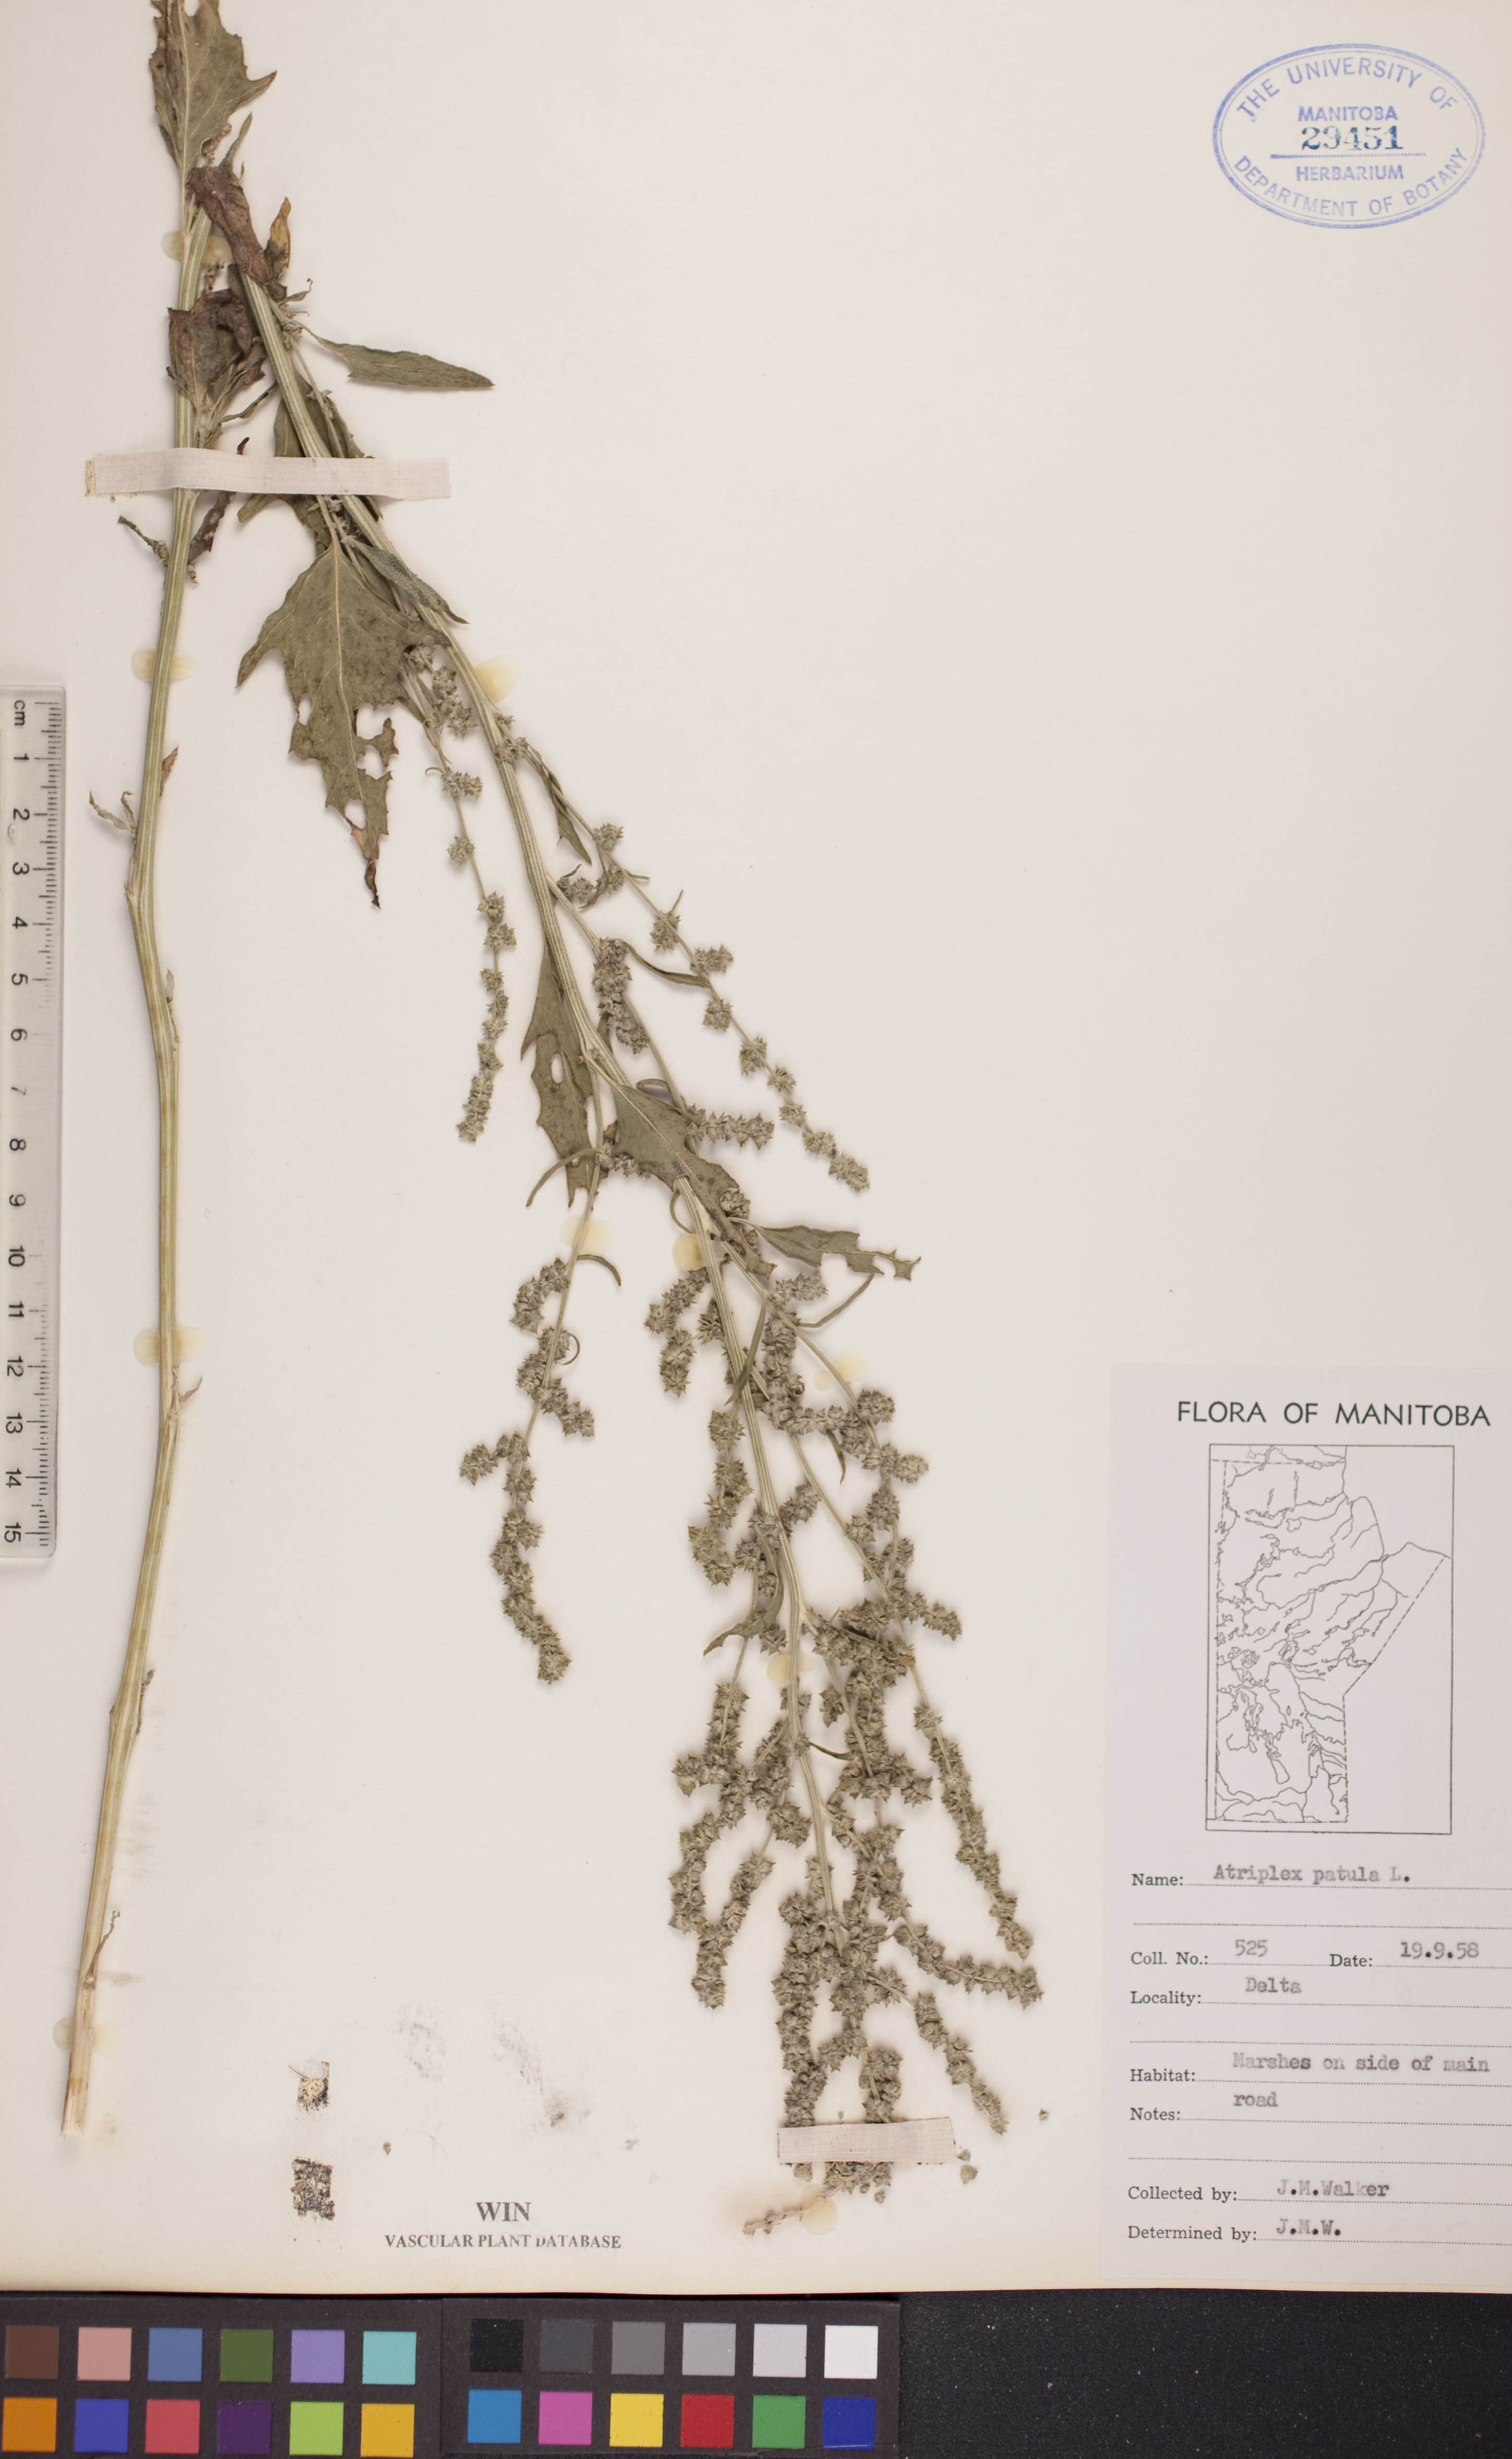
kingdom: Plantae
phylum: Tracheophyta
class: Magnoliopsida
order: Caryophyllales
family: Amaranthaceae
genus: Atriplex
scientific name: Atriplex patula
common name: Common orache
